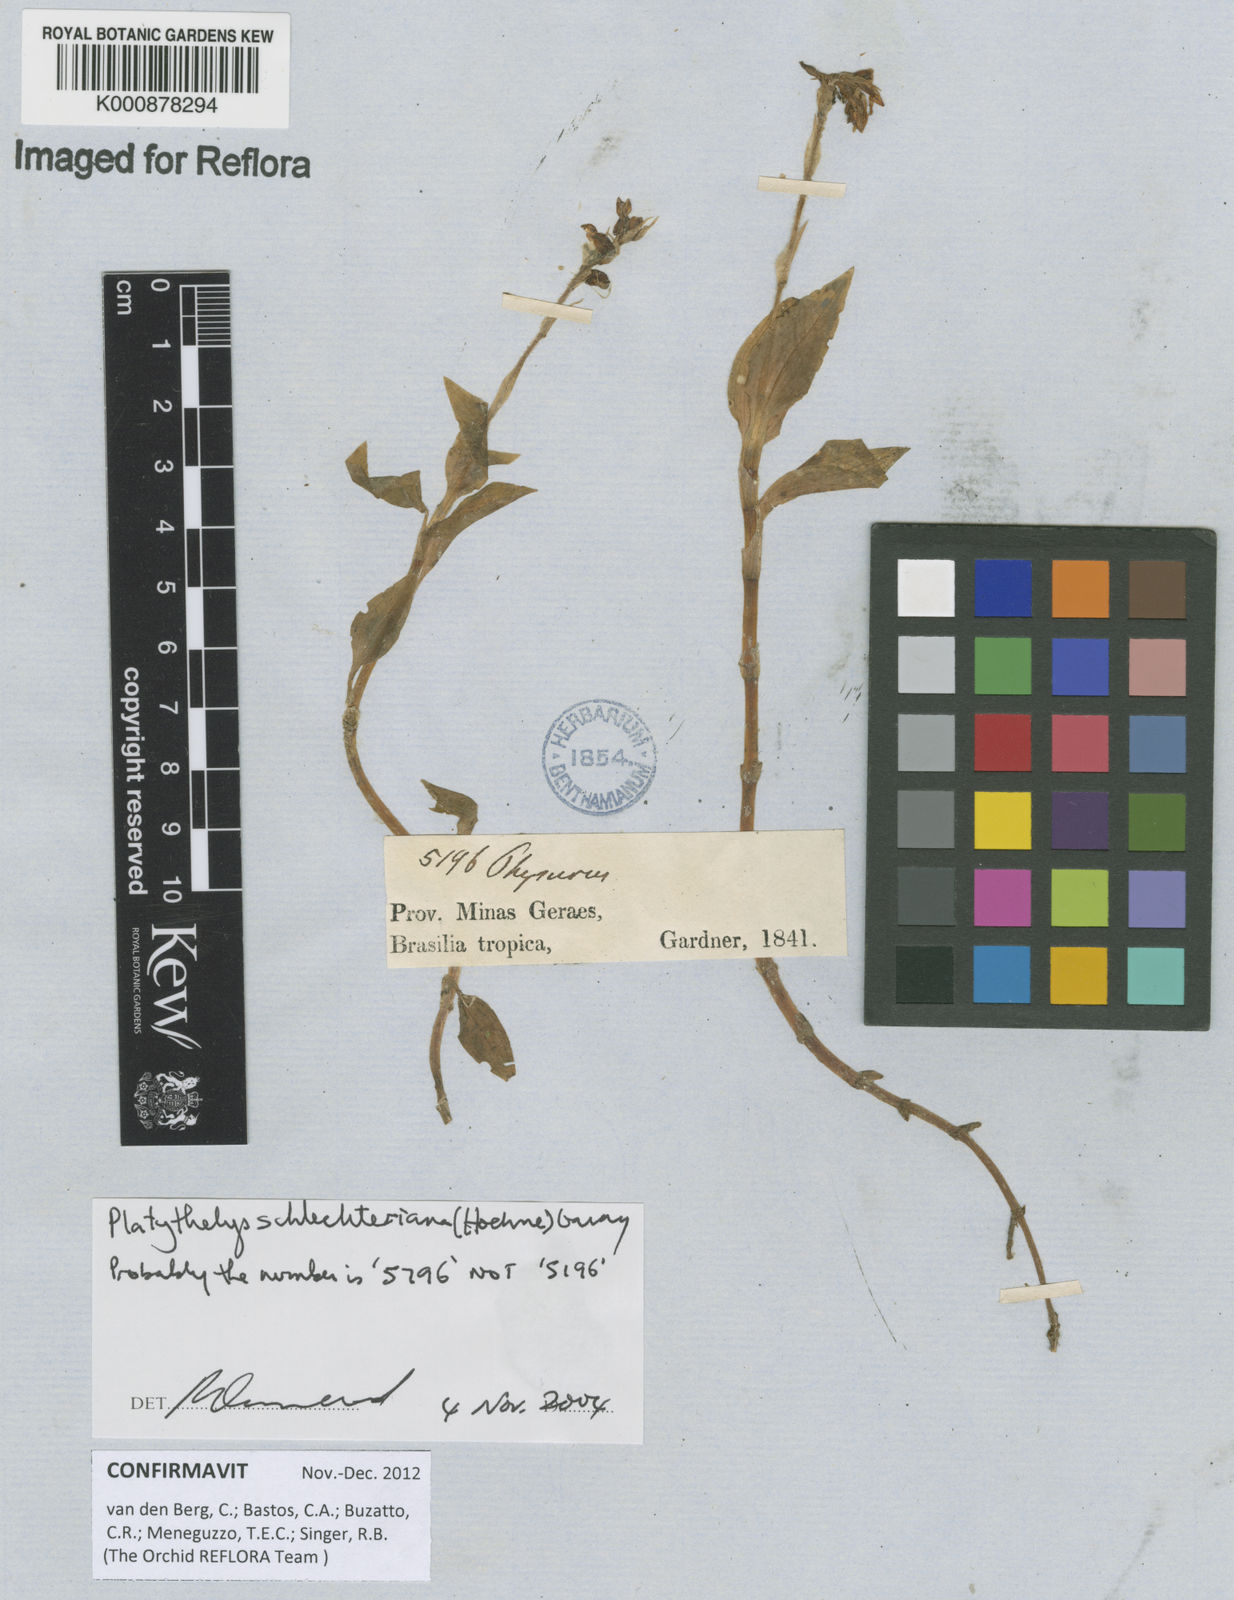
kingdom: Plantae
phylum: Tracheophyta
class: Liliopsida
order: Asparagales
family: Orchidaceae
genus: Aspidogyne
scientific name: Aspidogyne schlechteriana
